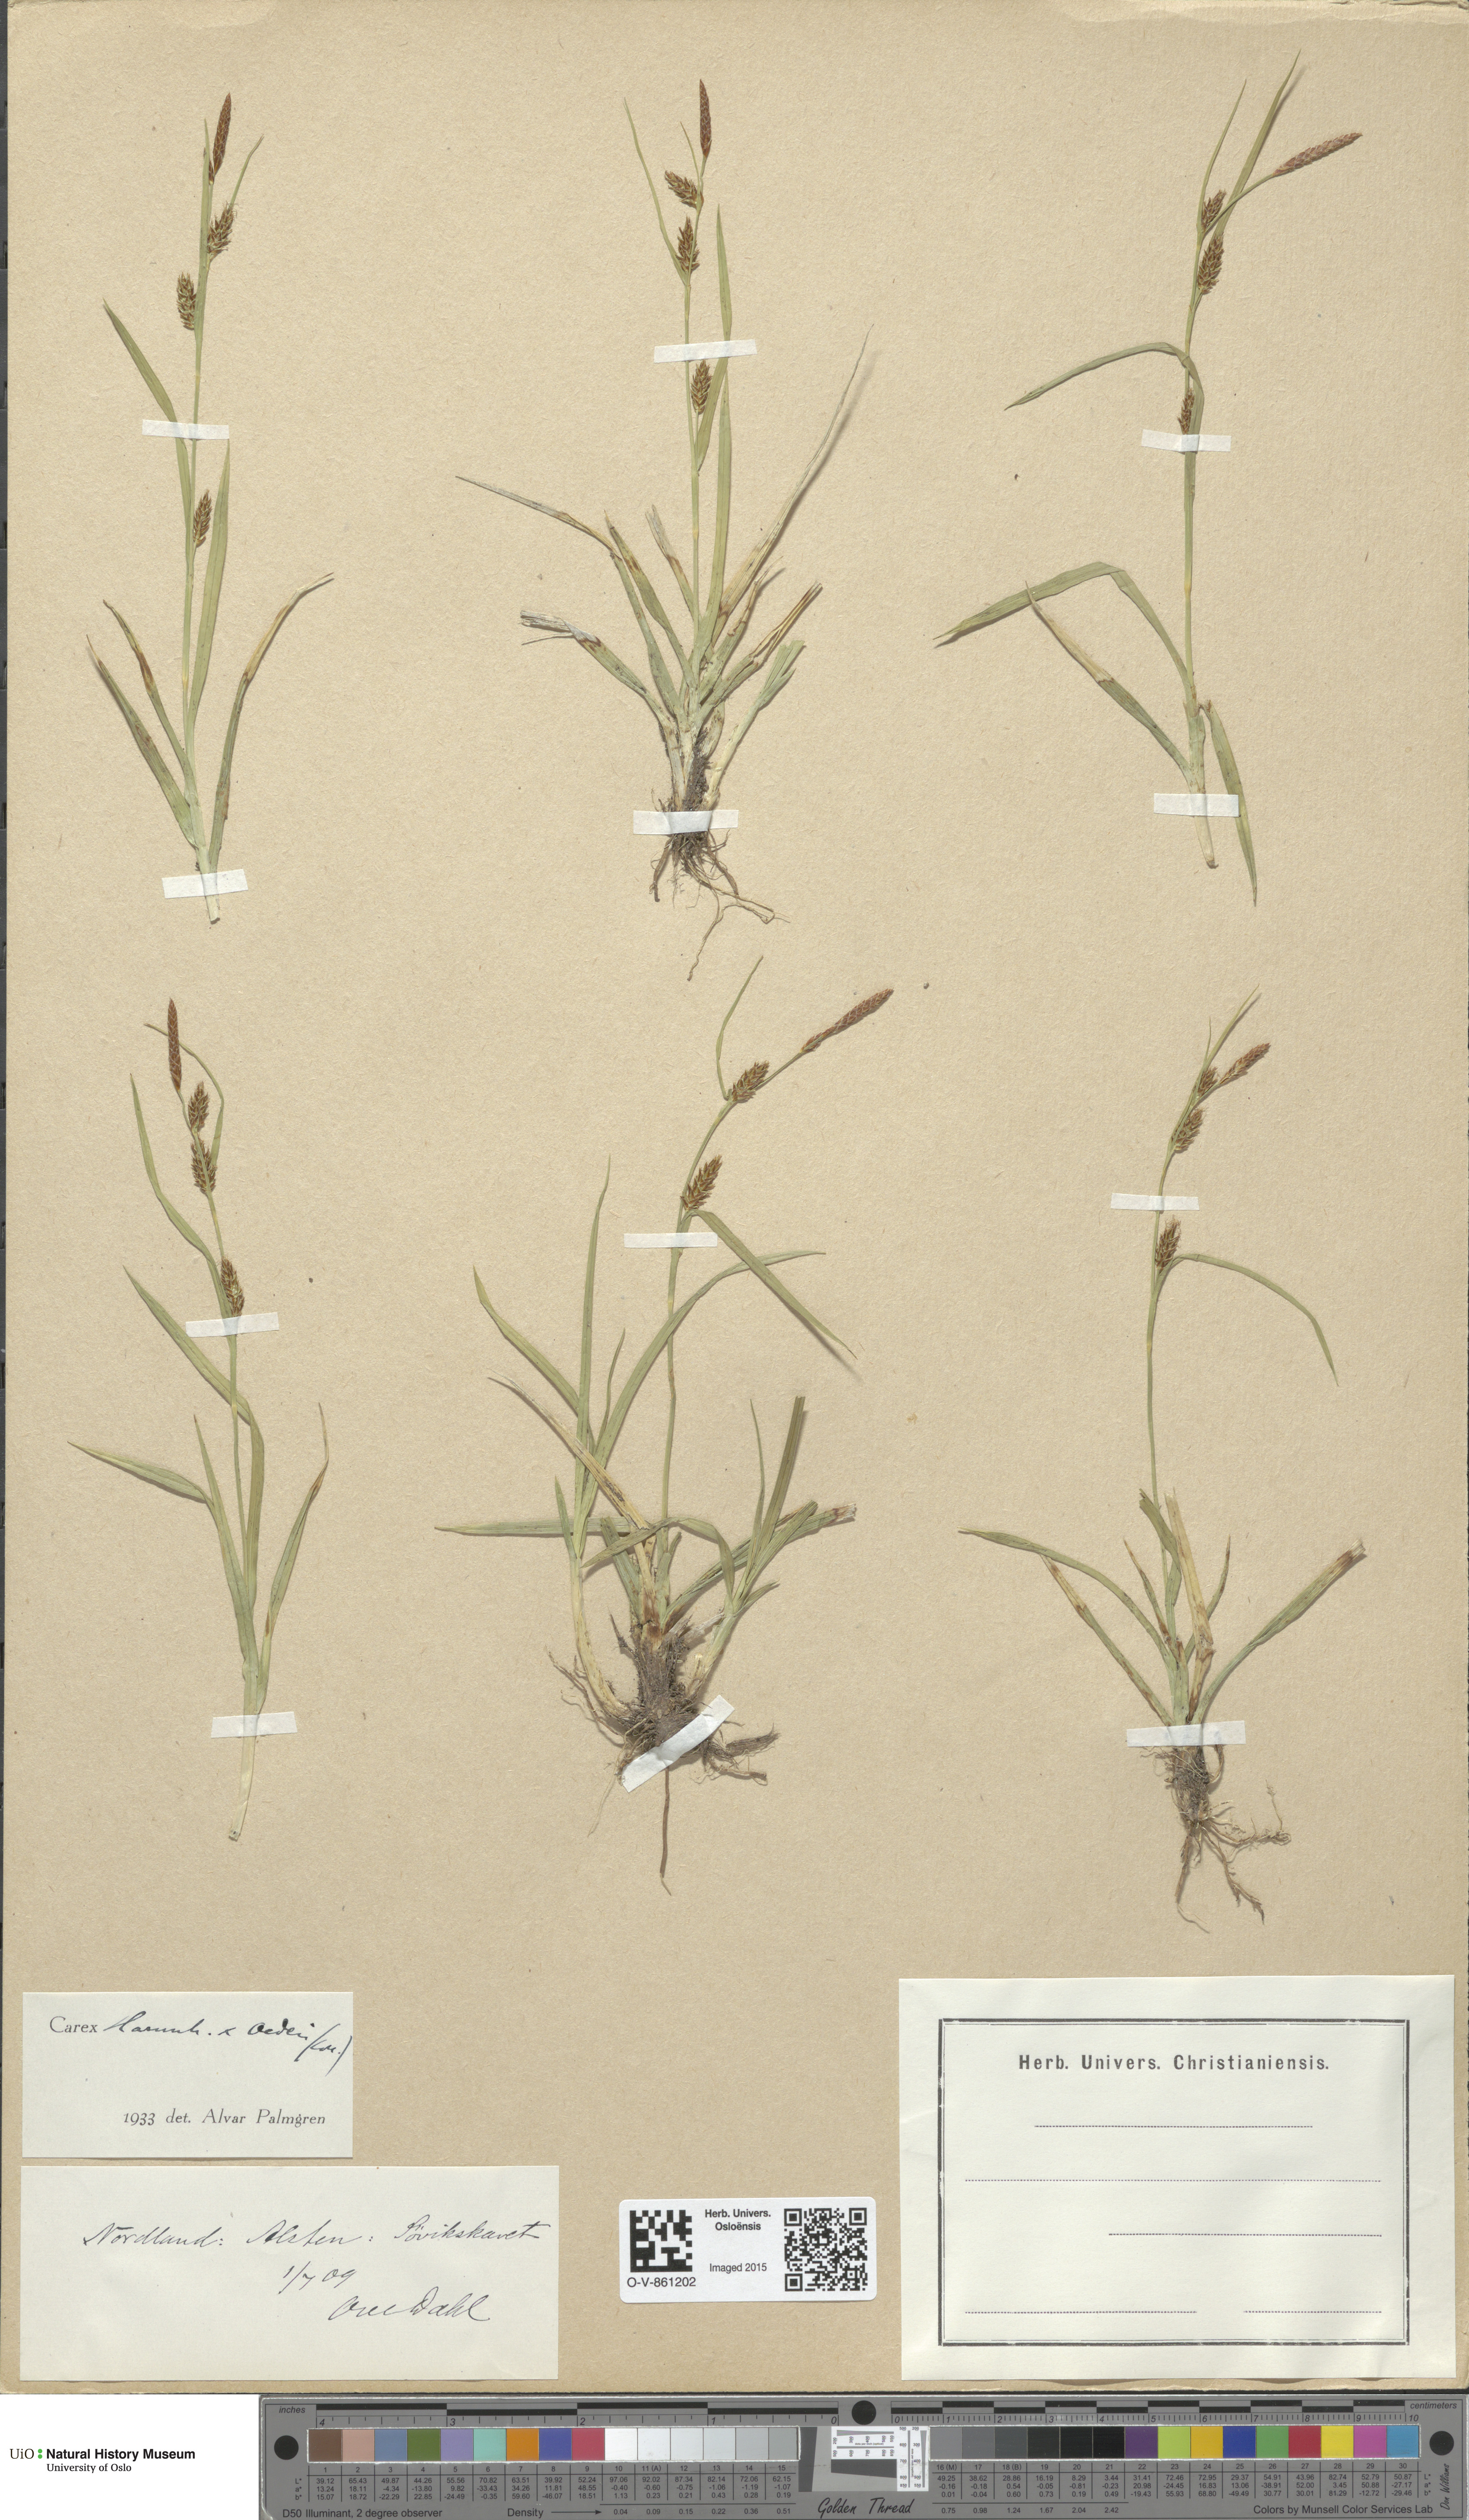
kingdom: Plantae
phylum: Tracheophyta
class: Liliopsida
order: Poales
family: Cyperaceae
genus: Carex
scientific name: Carex
